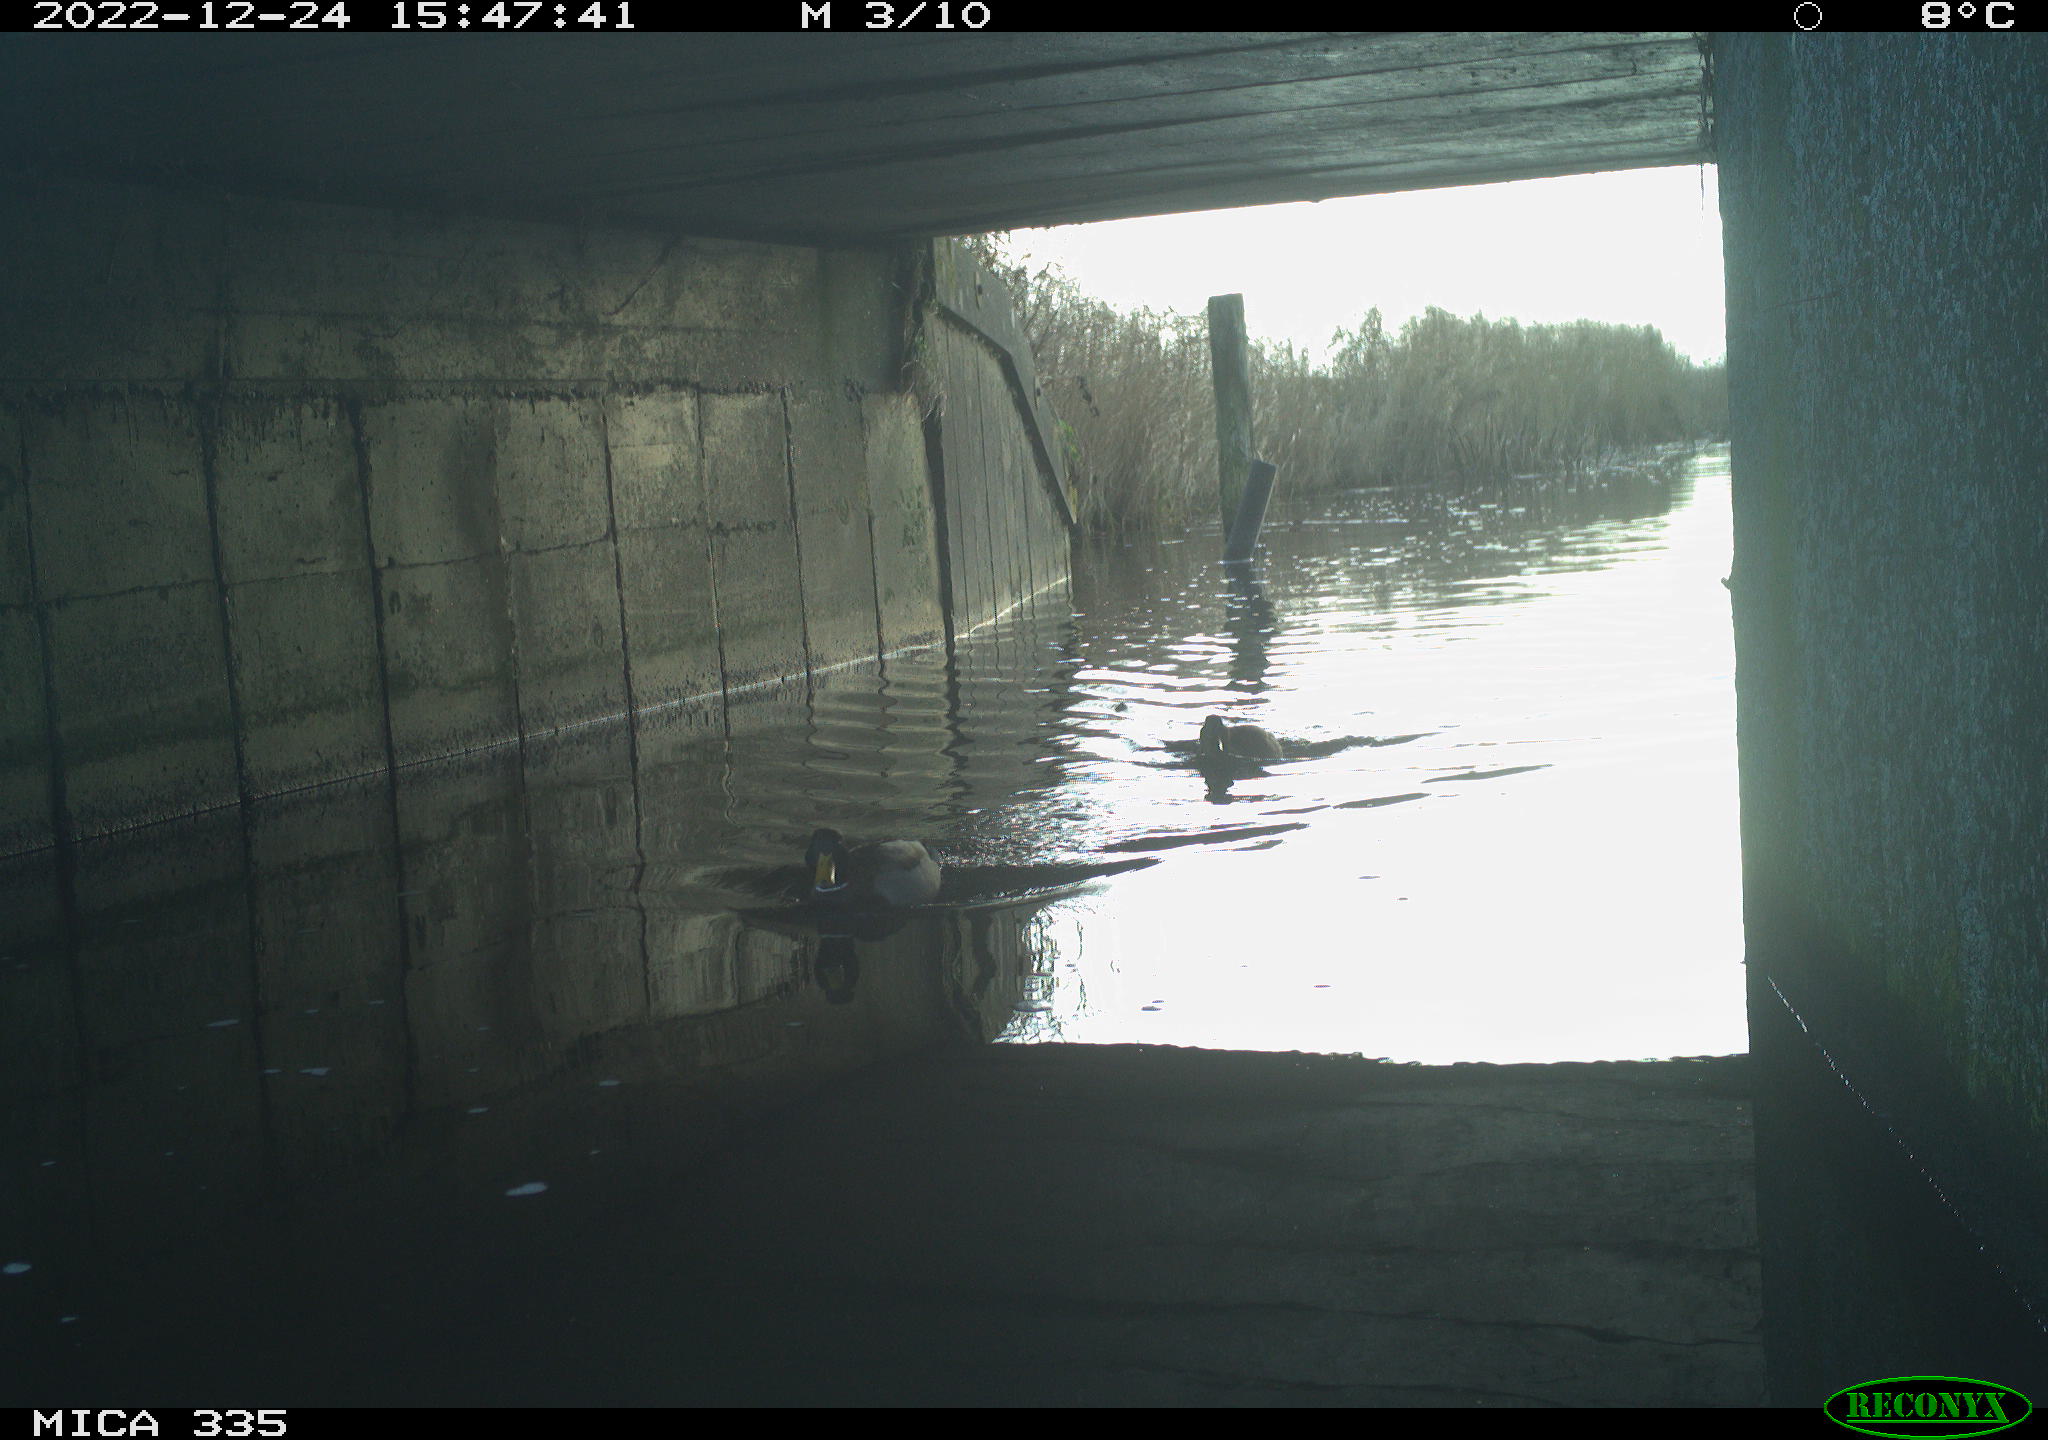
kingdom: Animalia
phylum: Chordata
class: Aves
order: Anseriformes
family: Anatidae
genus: Anas
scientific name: Anas
